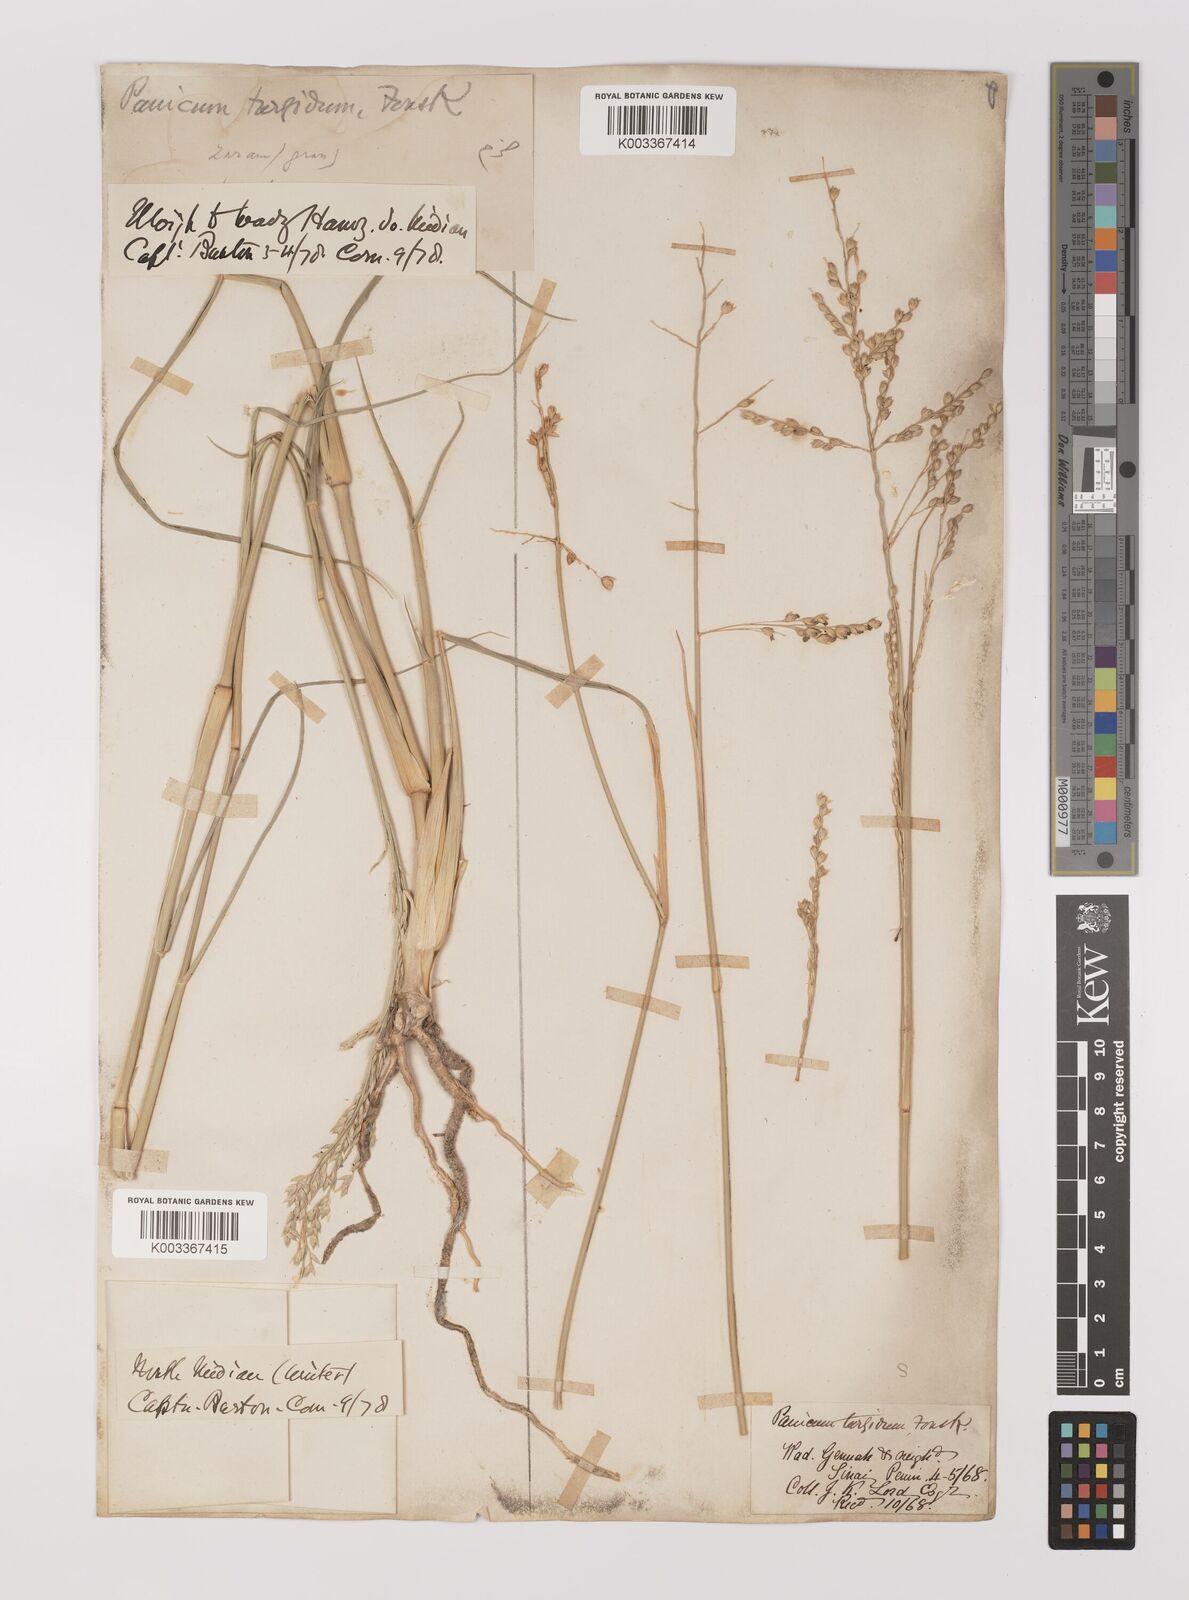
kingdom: Plantae
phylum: Tracheophyta
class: Liliopsida
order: Poales
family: Poaceae
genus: Panicum
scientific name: Panicum turgidum
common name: Desert grass
